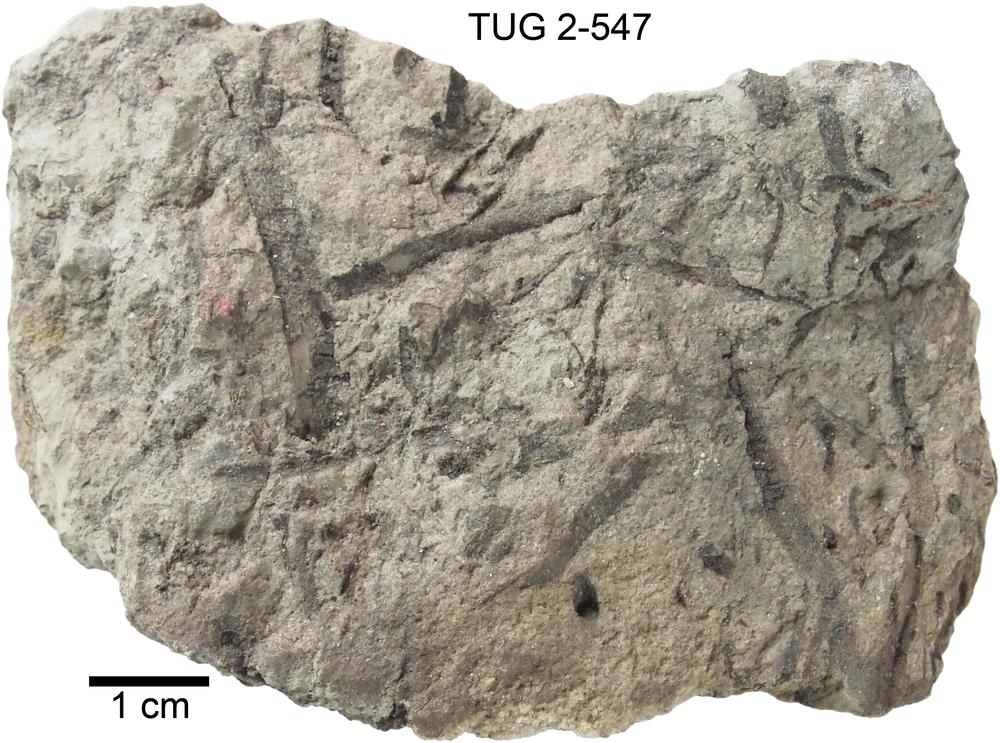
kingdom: Plantae
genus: Aulacophycus
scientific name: Aulacophycus
